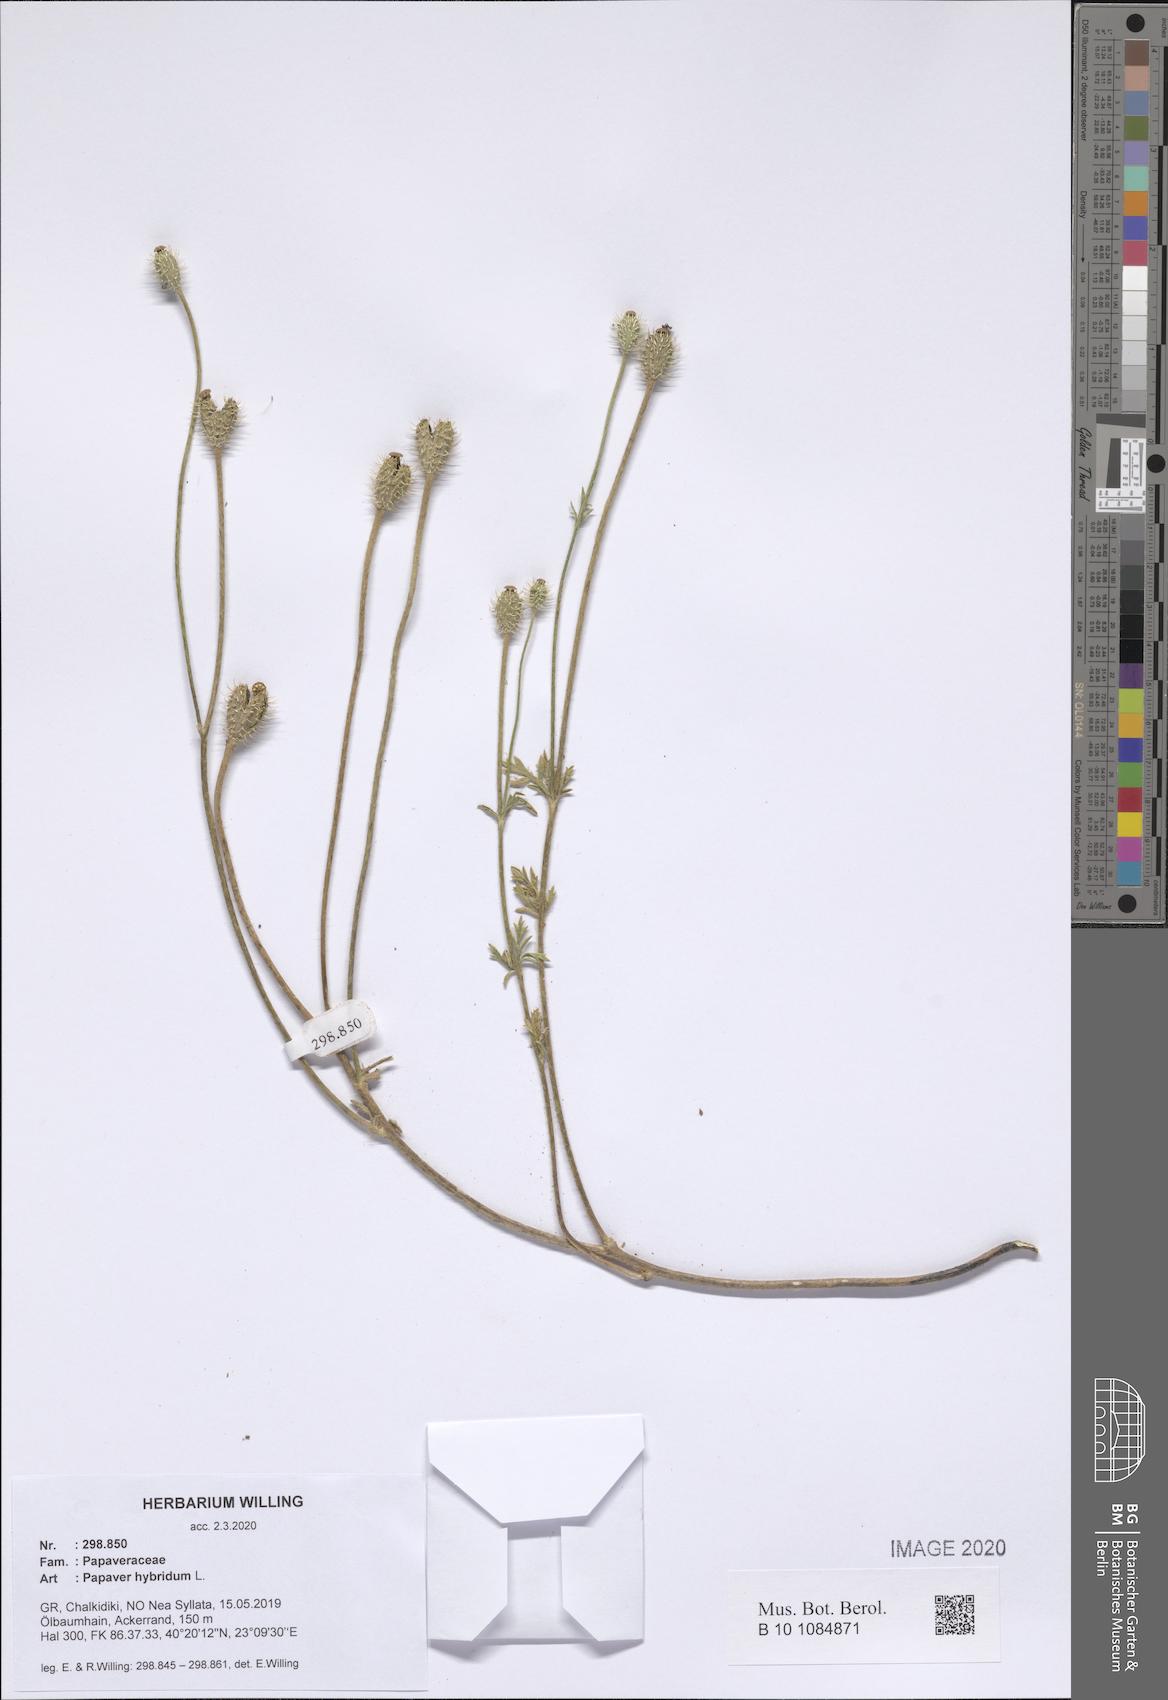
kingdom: Plantae
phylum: Tracheophyta
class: Magnoliopsida
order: Ranunculales
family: Papaveraceae
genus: Roemeria
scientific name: Roemeria hispida
